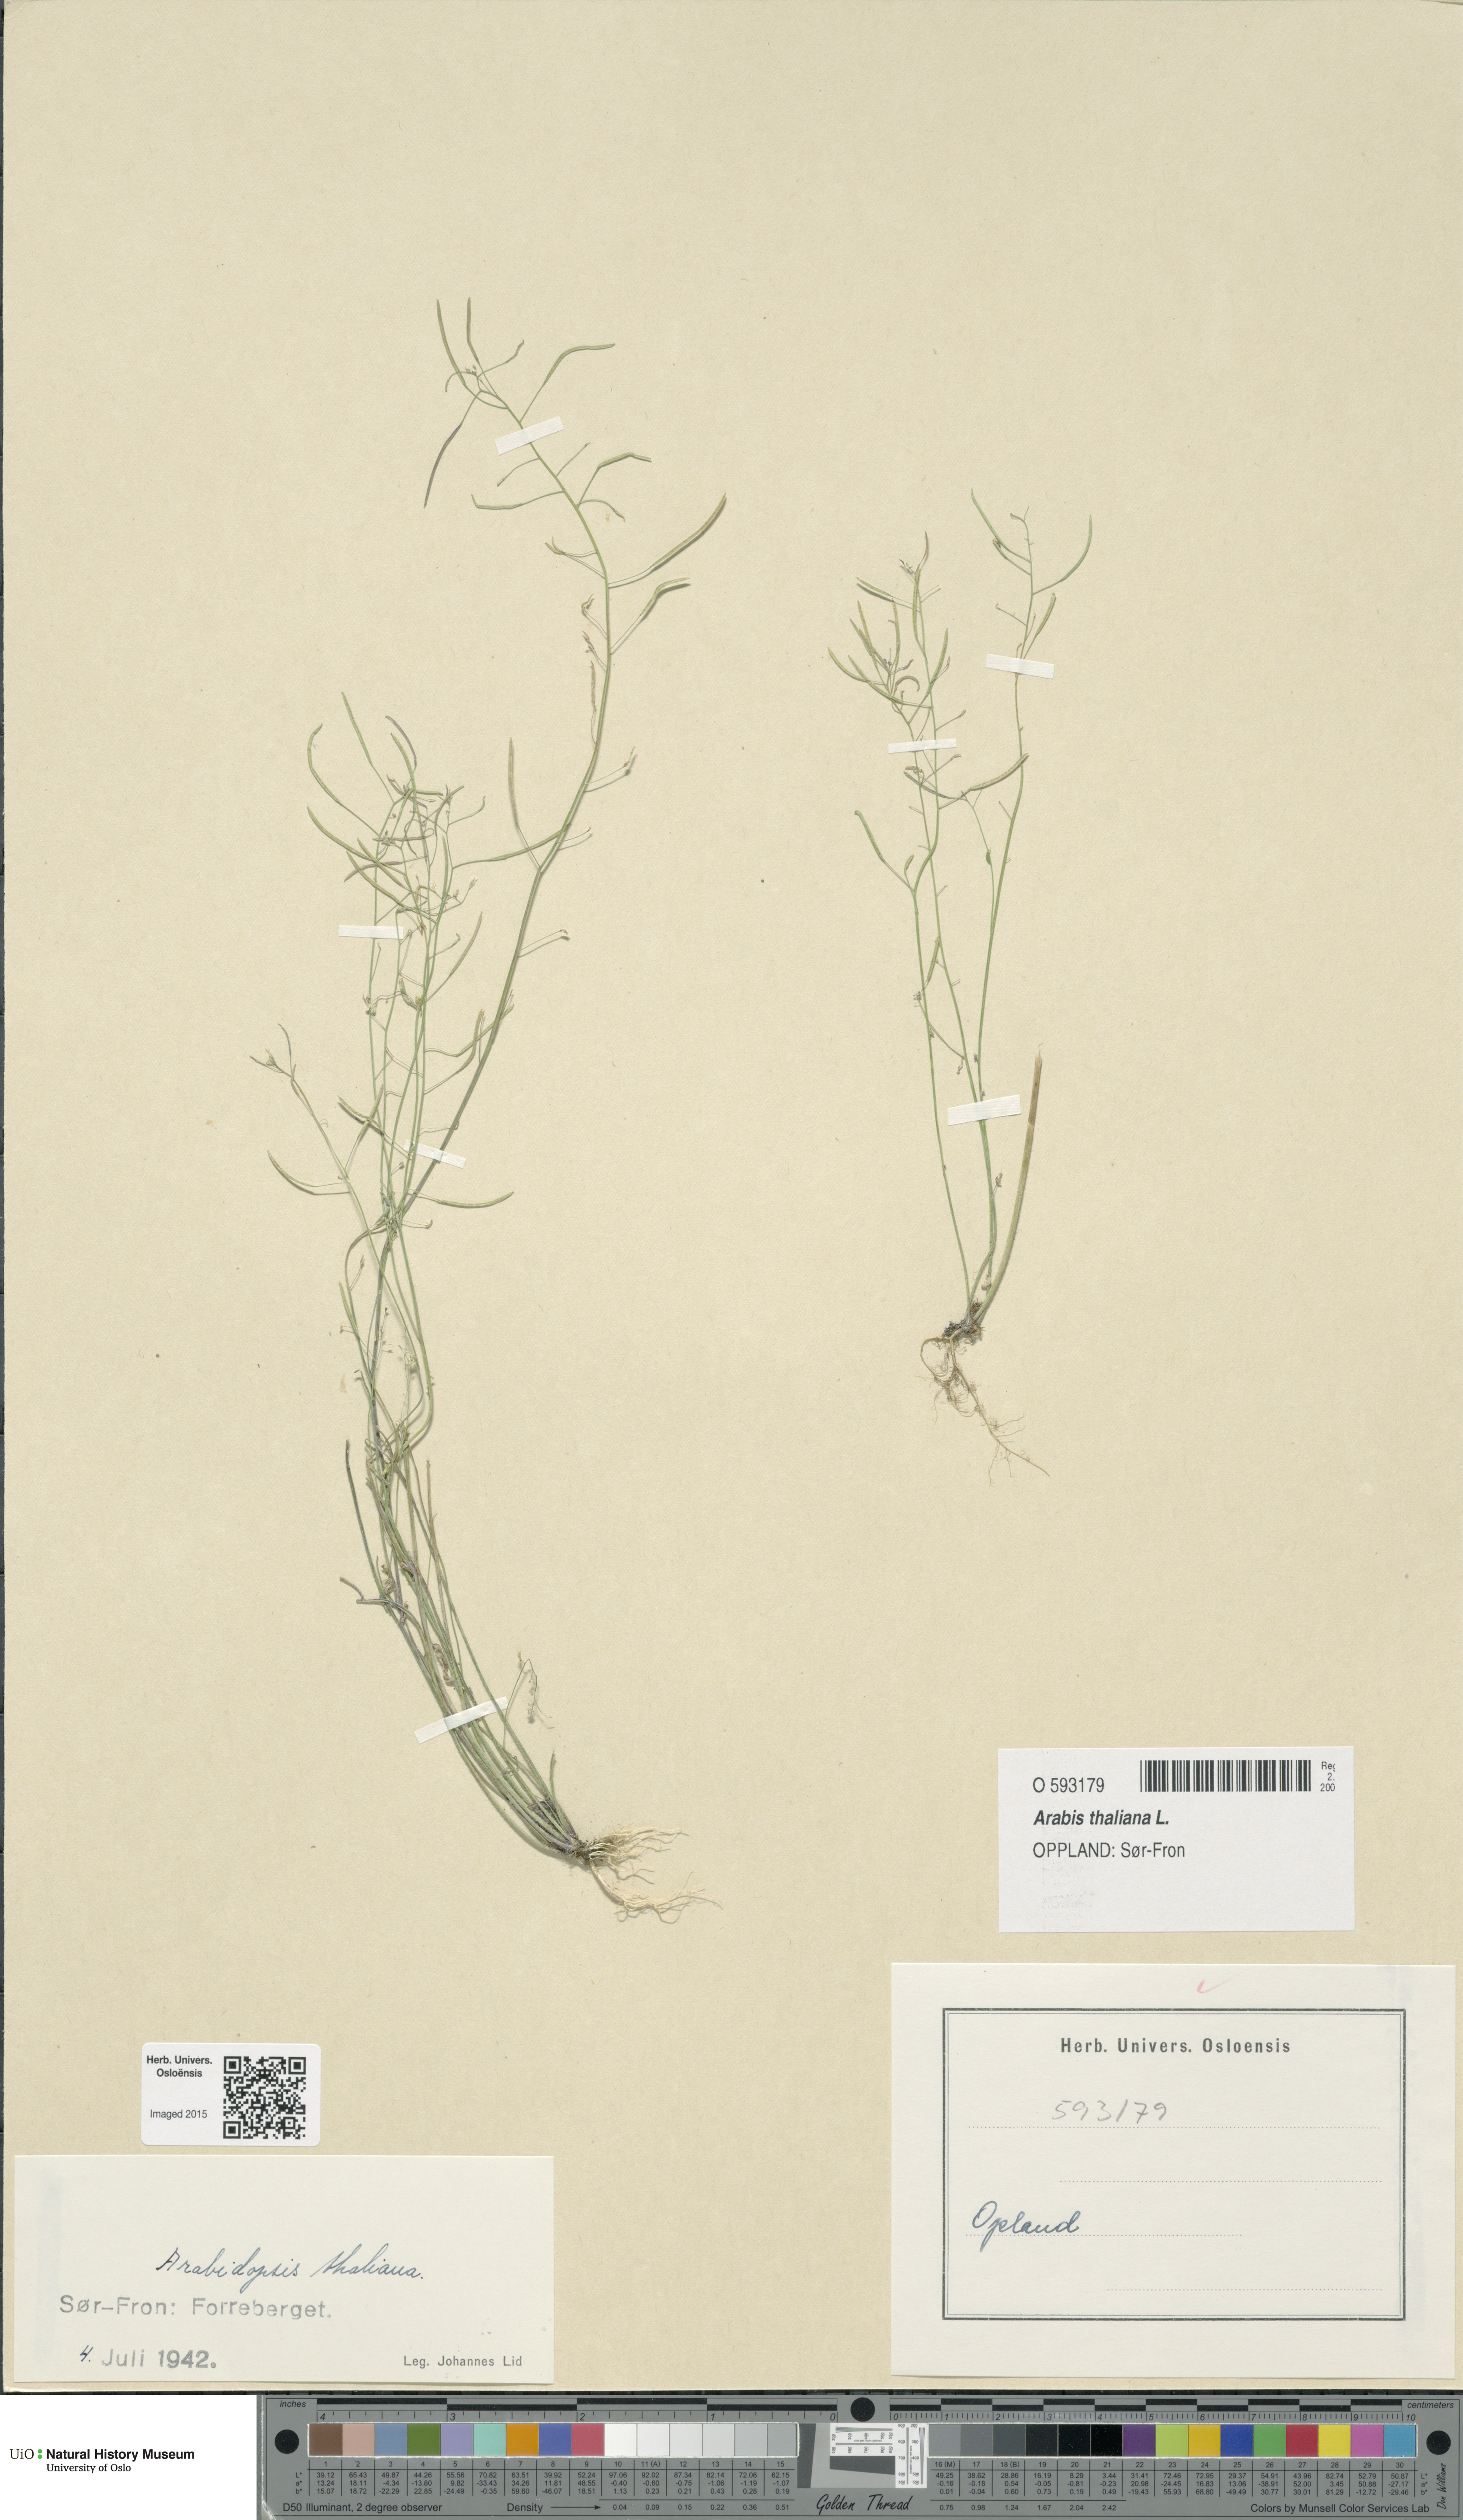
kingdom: Plantae
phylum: Tracheophyta
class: Magnoliopsida
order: Brassicales
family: Brassicaceae
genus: Arabidopsis
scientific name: Arabidopsis thaliana
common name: Thale cress
